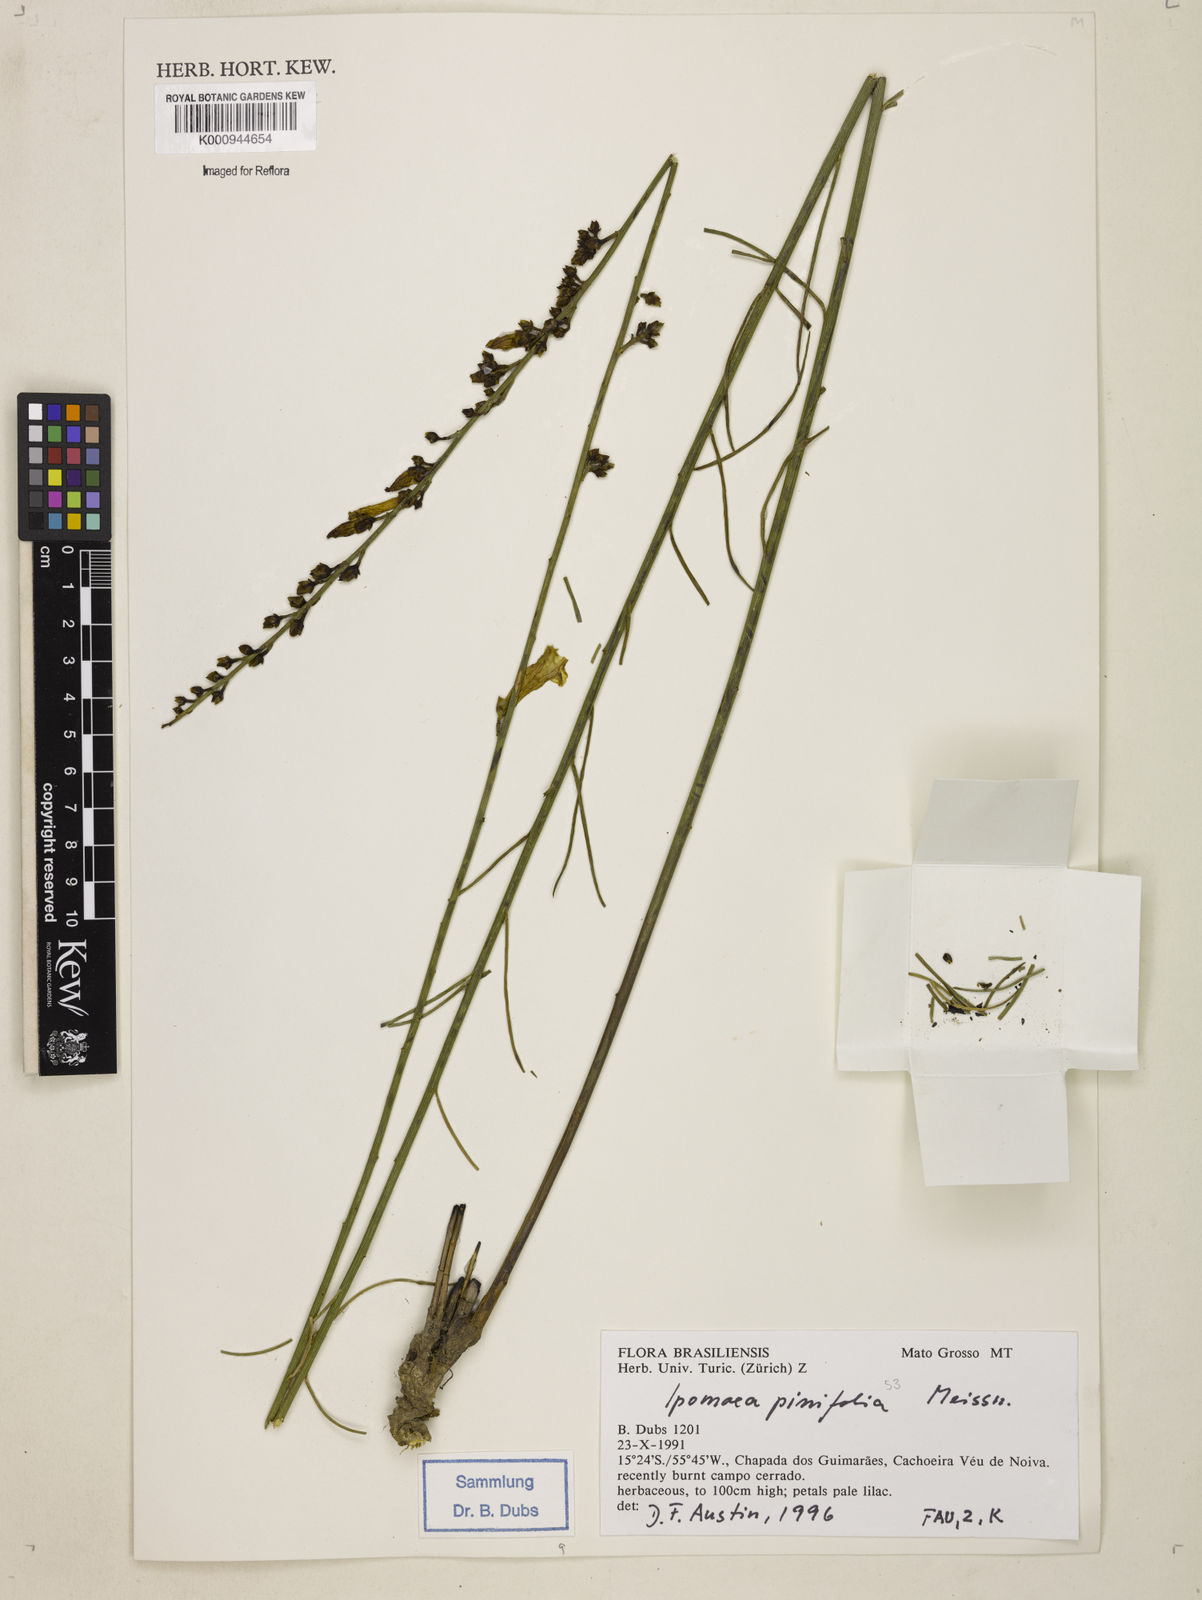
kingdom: Plantae
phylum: Tracheophyta
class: Magnoliopsida
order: Solanales
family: Convolvulaceae
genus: Ipomoea
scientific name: Ipomoea pinifolia
